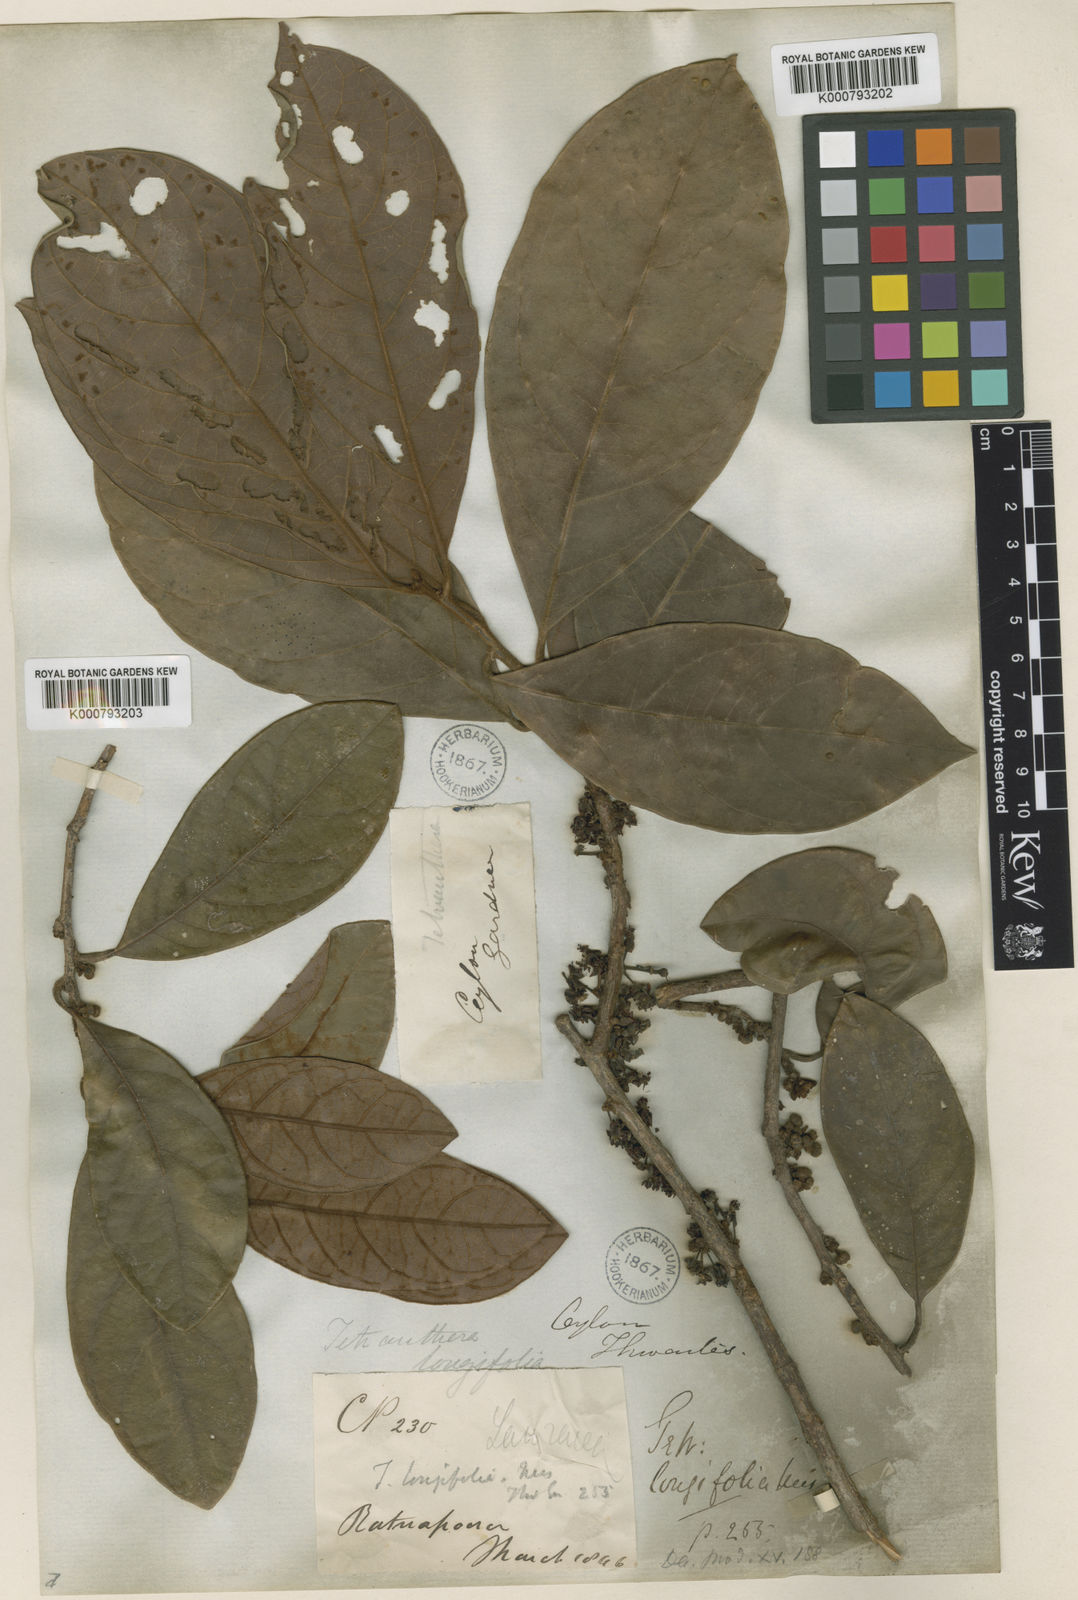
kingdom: Plantae
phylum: Tracheophyta
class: Magnoliopsida
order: Laurales
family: Lauraceae
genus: Litsea
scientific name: Litsea ligustrina
